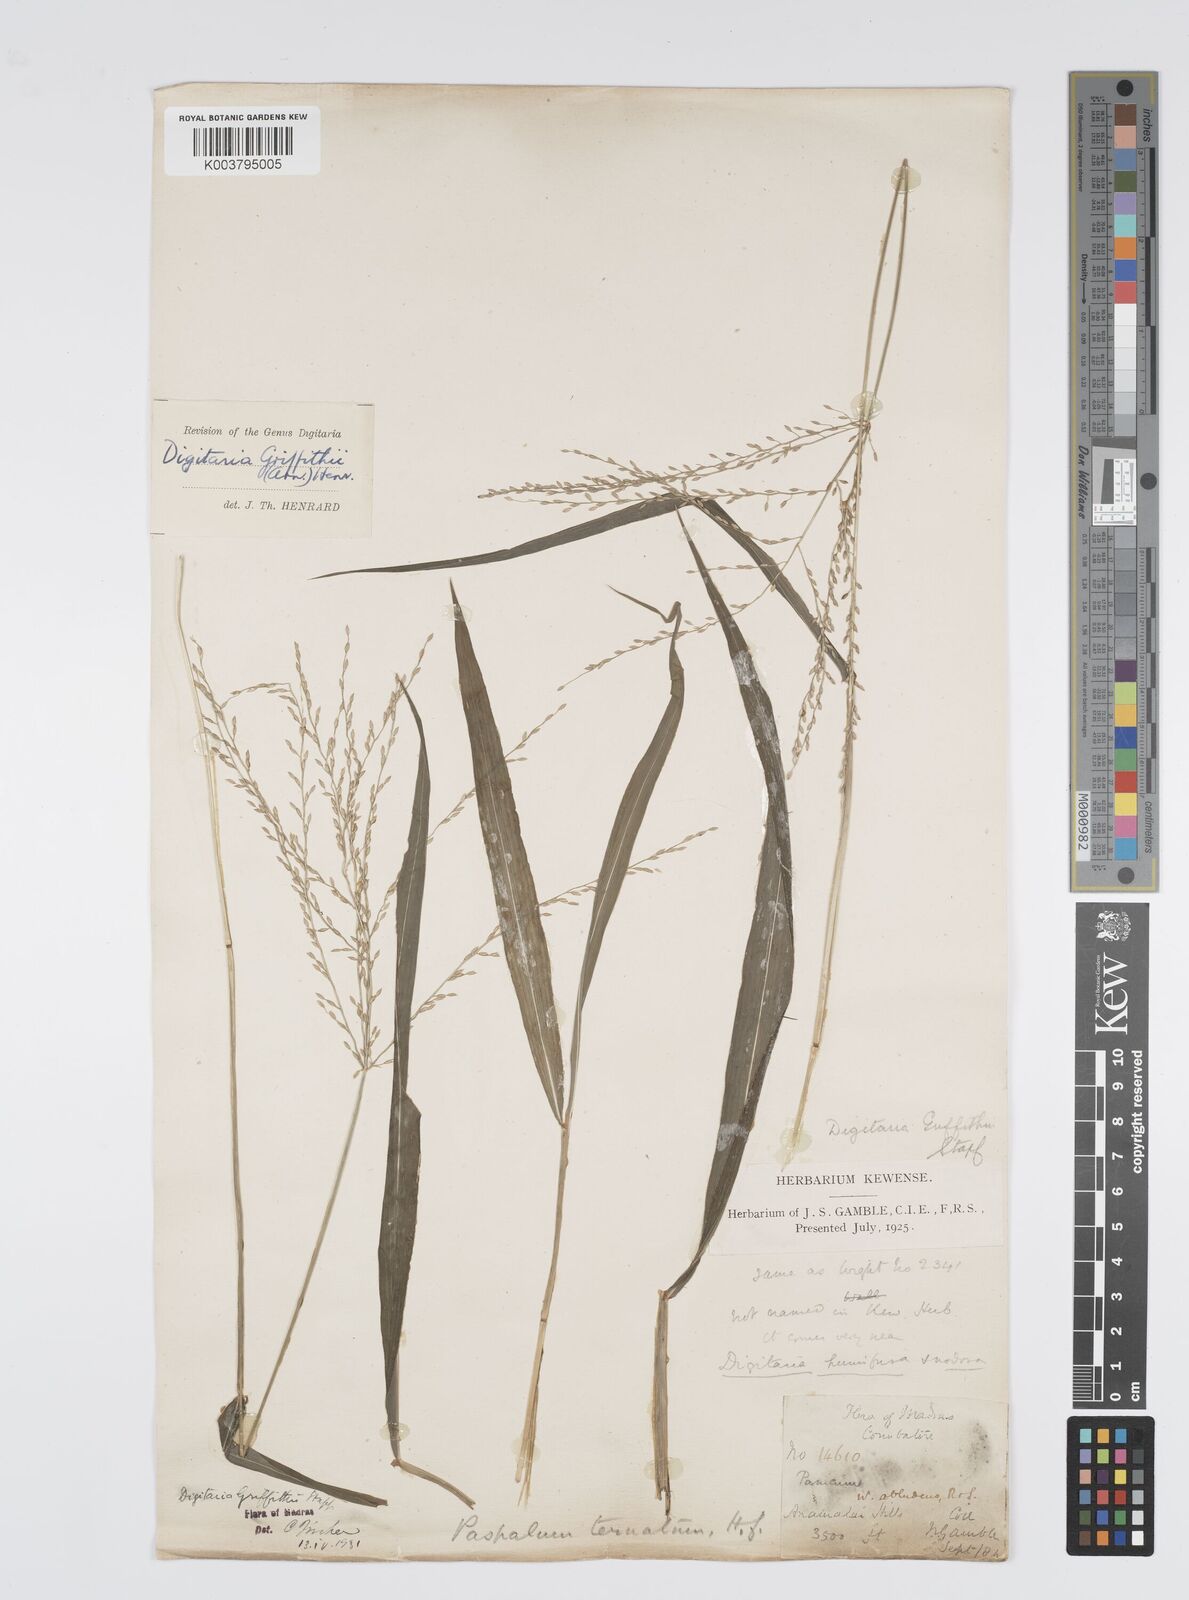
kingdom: Plantae
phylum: Tracheophyta
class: Liliopsida
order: Poales
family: Poaceae
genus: Digitaria
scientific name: Digitaria griffithii
